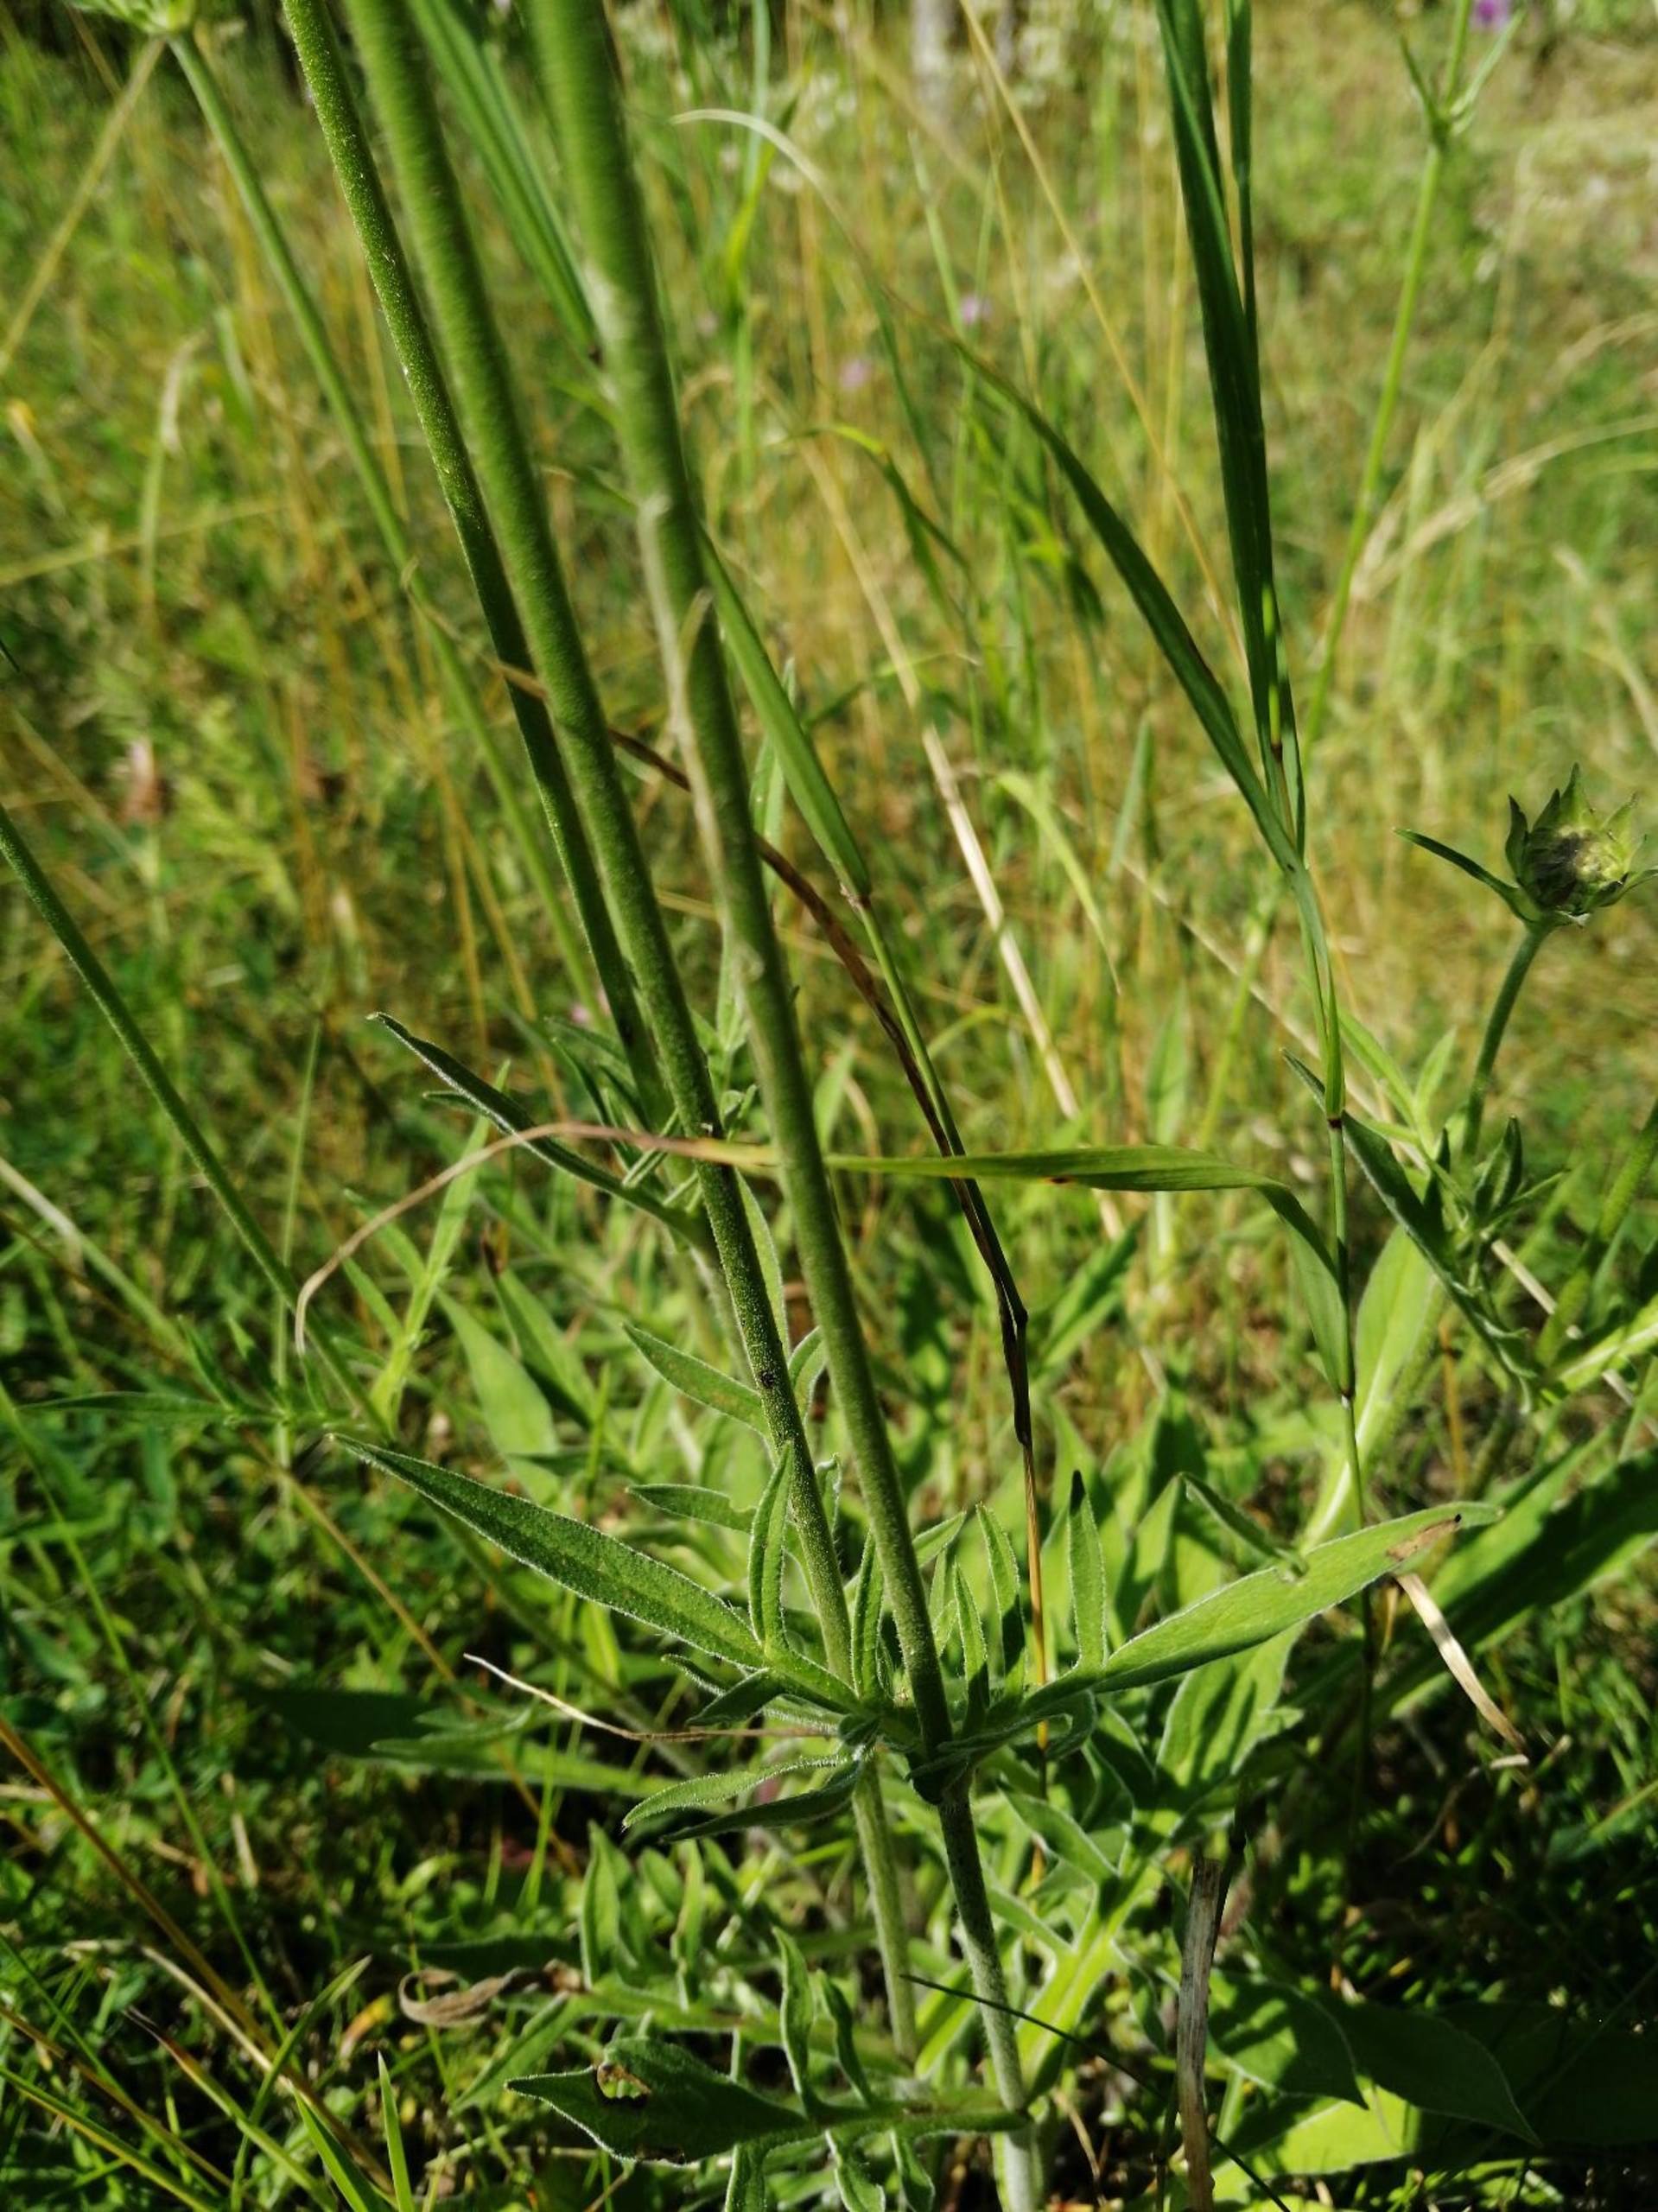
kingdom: Plantae
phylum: Tracheophyta
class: Magnoliopsida
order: Dipsacales
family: Caprifoliaceae
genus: Knautia
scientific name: Knautia arvensis
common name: Blåhat
